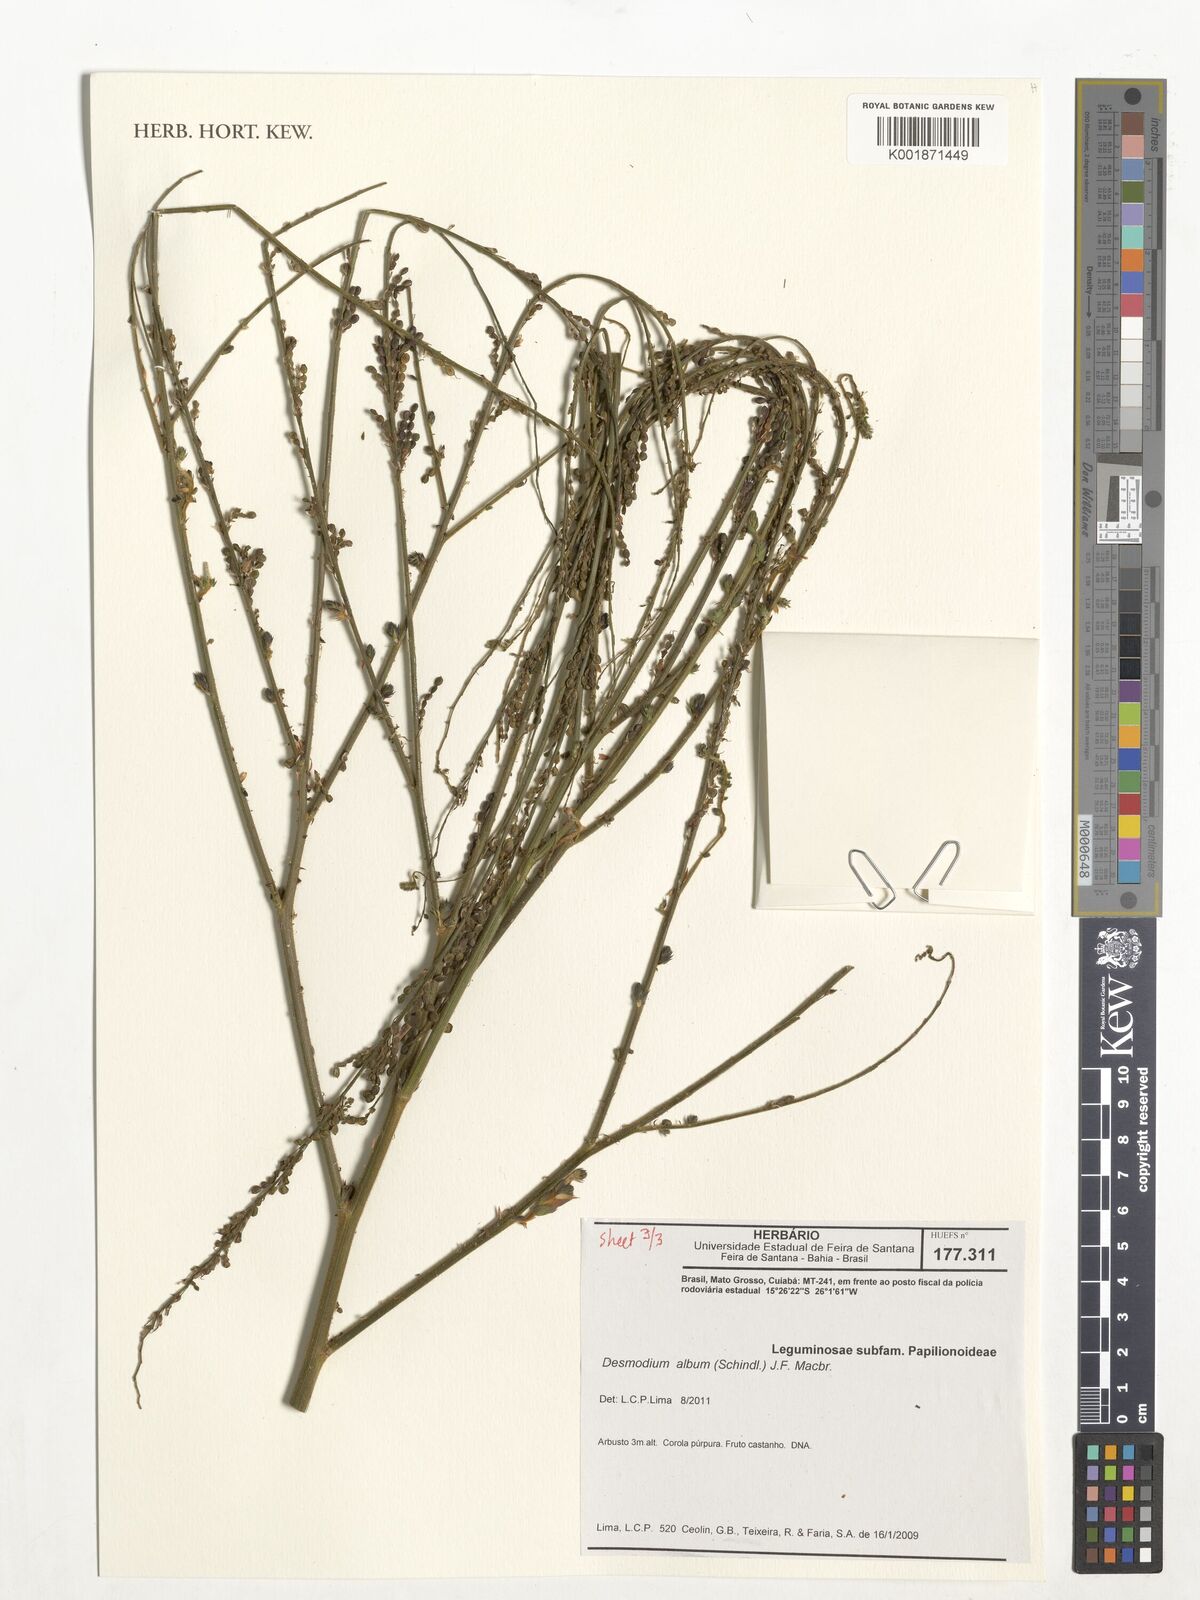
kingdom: Plantae
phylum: Tracheophyta
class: Magnoliopsida
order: Fabales
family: Fabaceae
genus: Desmodium
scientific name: Desmodium album
